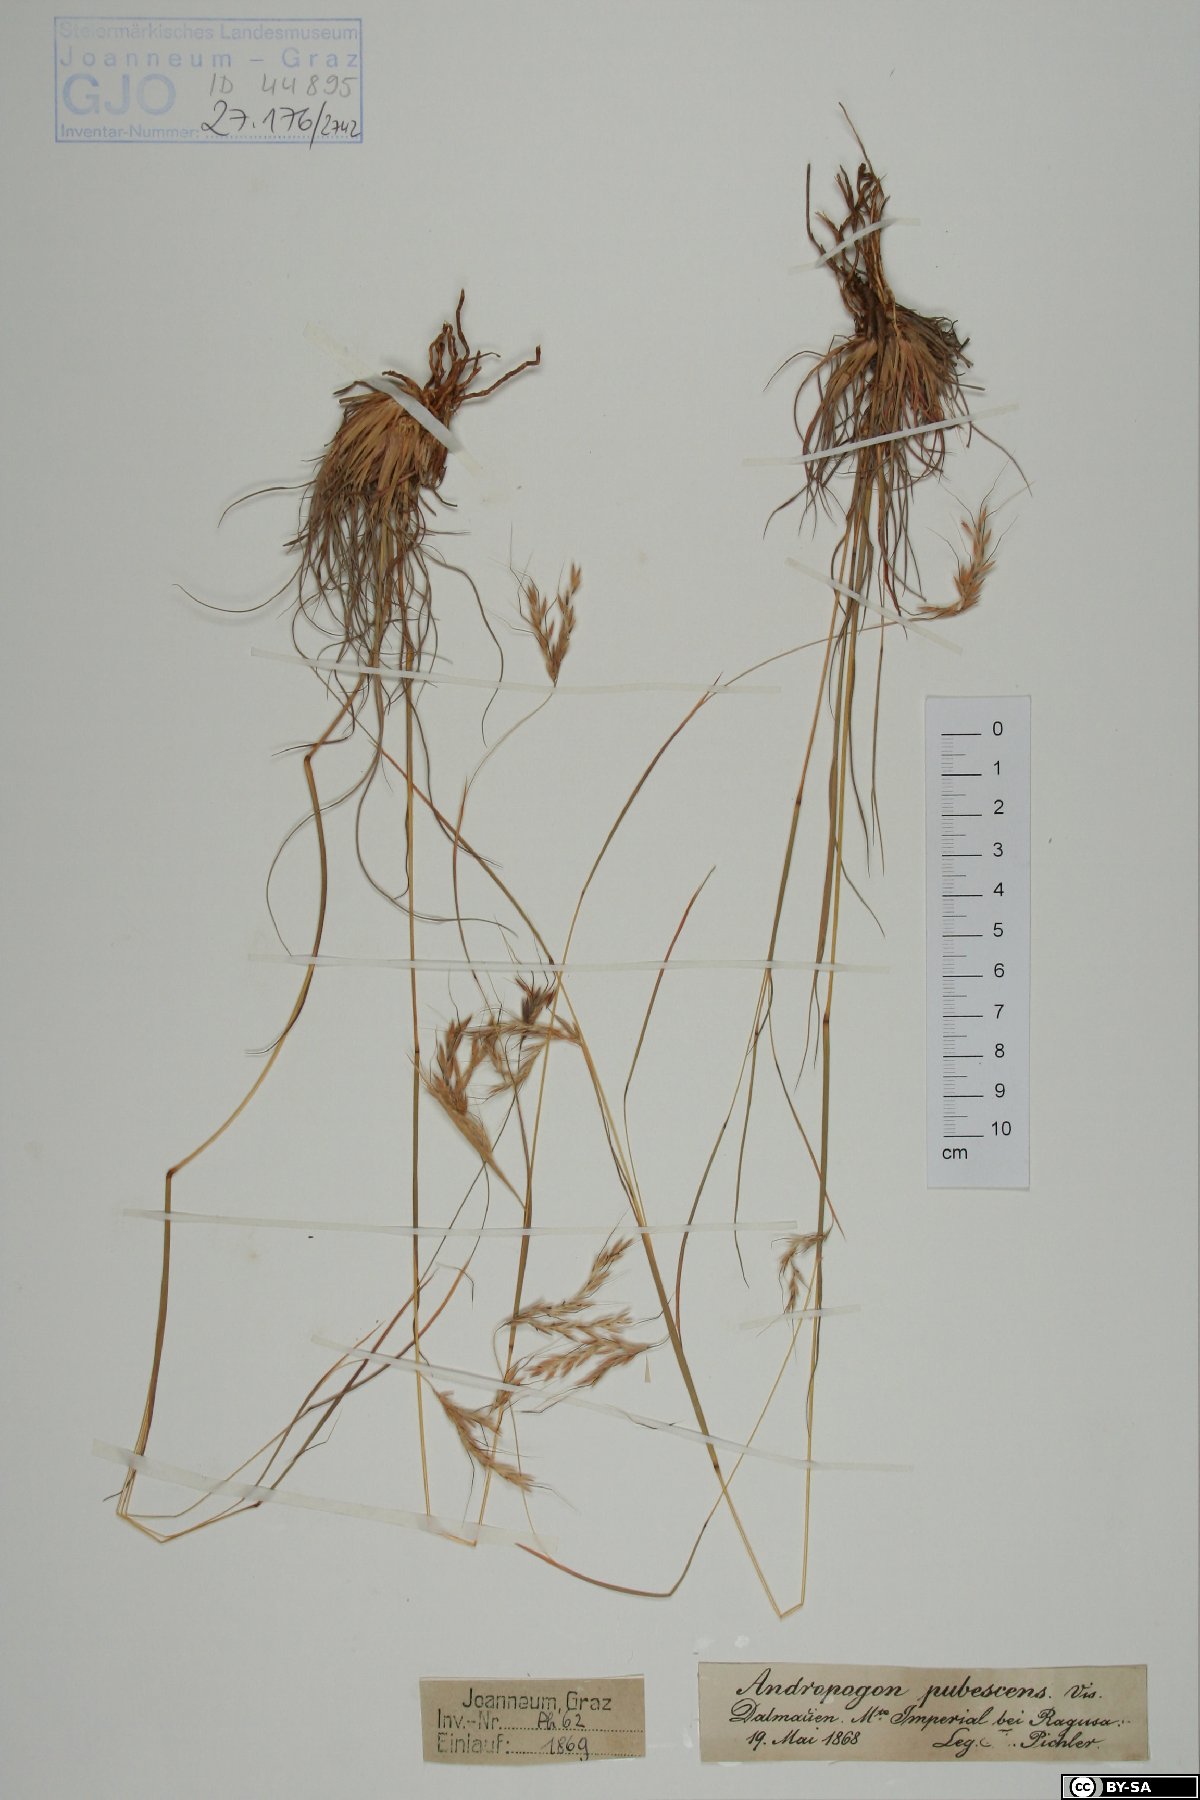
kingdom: Plantae
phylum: Tracheophyta
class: Liliopsida
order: Poales
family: Poaceae
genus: Hyparrhenia
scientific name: Hyparrhenia hirta
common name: Thatching grass
